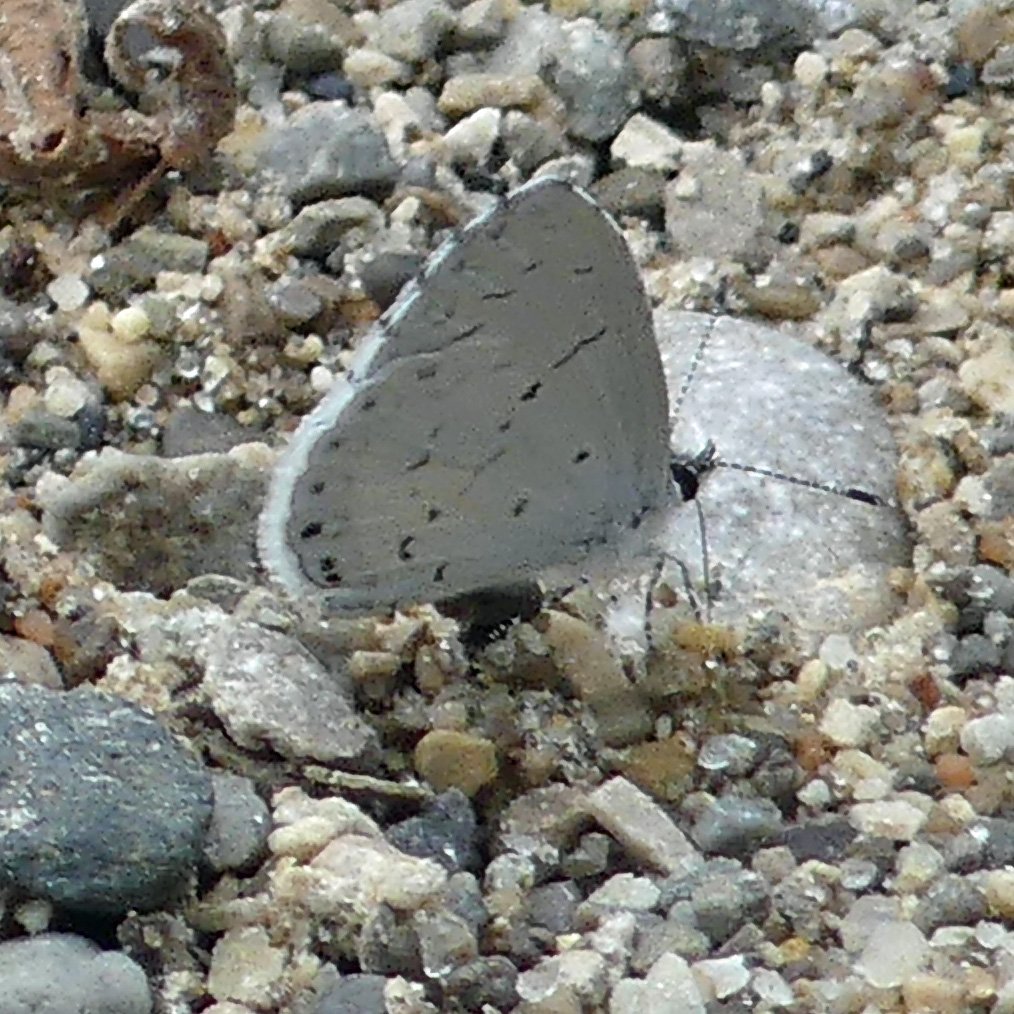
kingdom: Animalia
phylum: Arthropoda
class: Insecta
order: Lepidoptera
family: Lycaenidae
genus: Cyaniris
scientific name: Cyaniris neglecta
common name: Summer Azure
